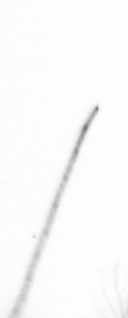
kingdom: Chromista
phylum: Ochrophyta
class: Bacillariophyceae
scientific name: Bacillariophyceae
